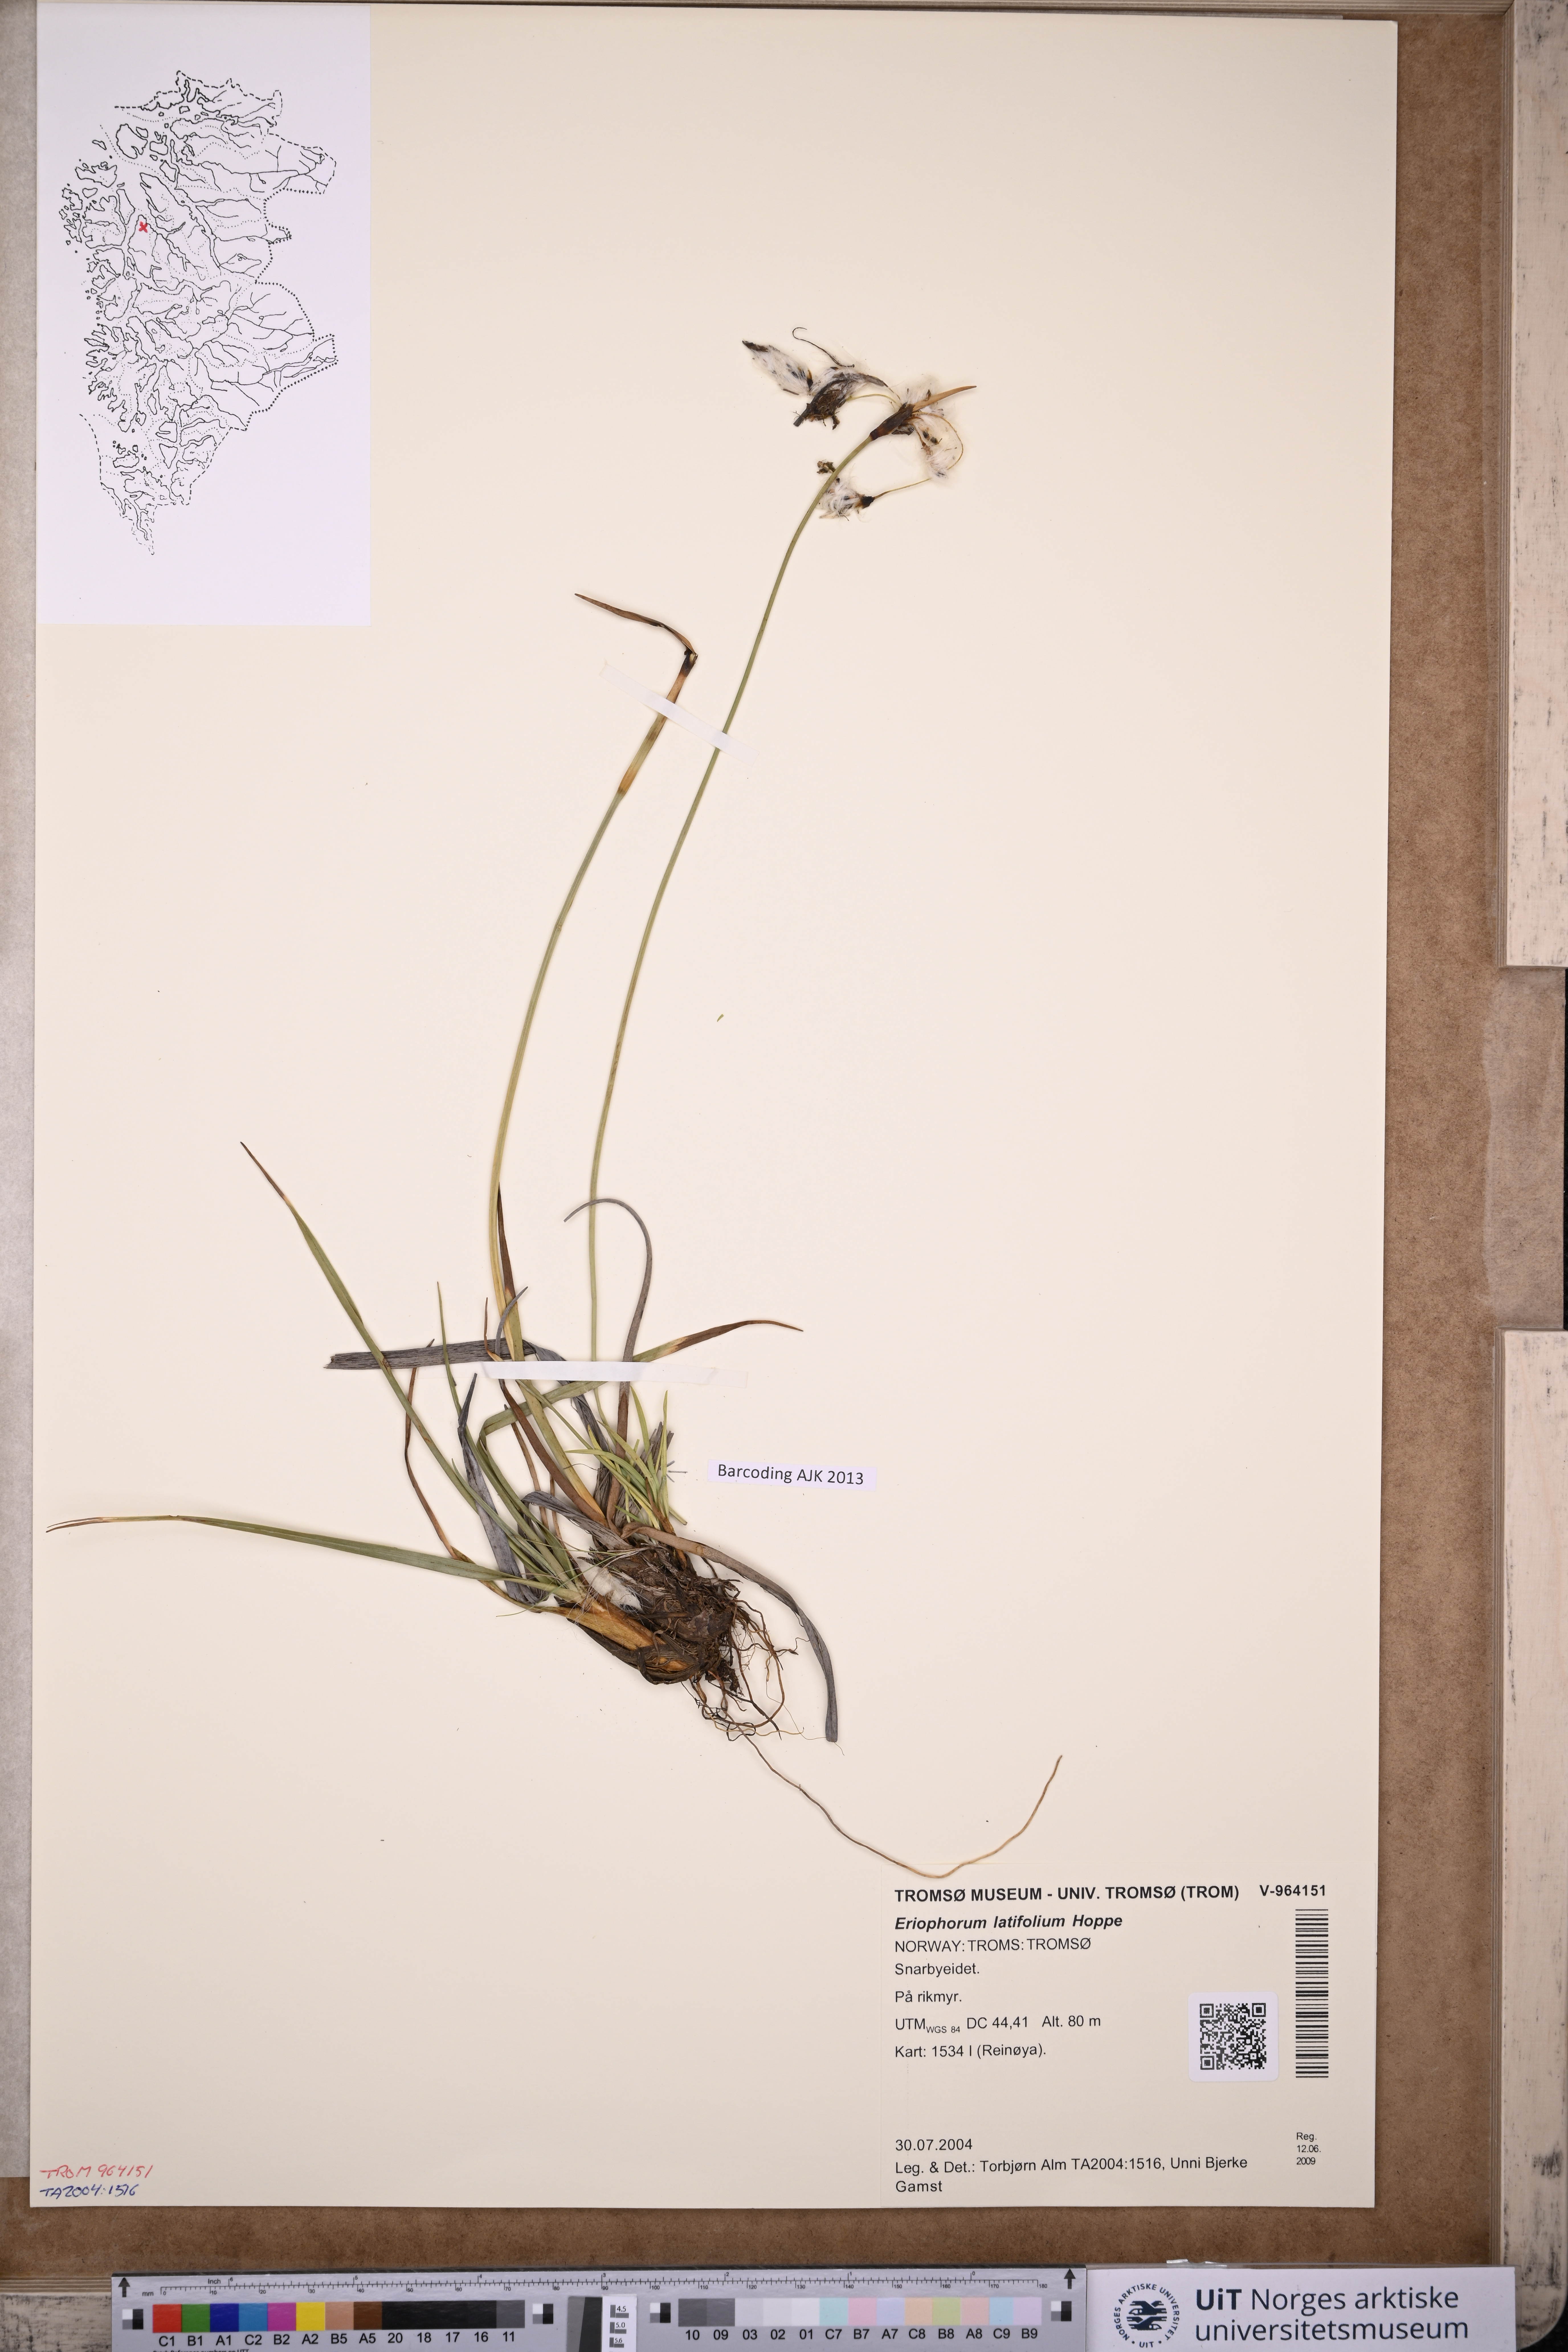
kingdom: Plantae
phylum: Tracheophyta
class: Liliopsida
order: Poales
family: Cyperaceae
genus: Eriophorum
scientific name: Eriophorum latifolium
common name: Broad-leaved cottongrass
